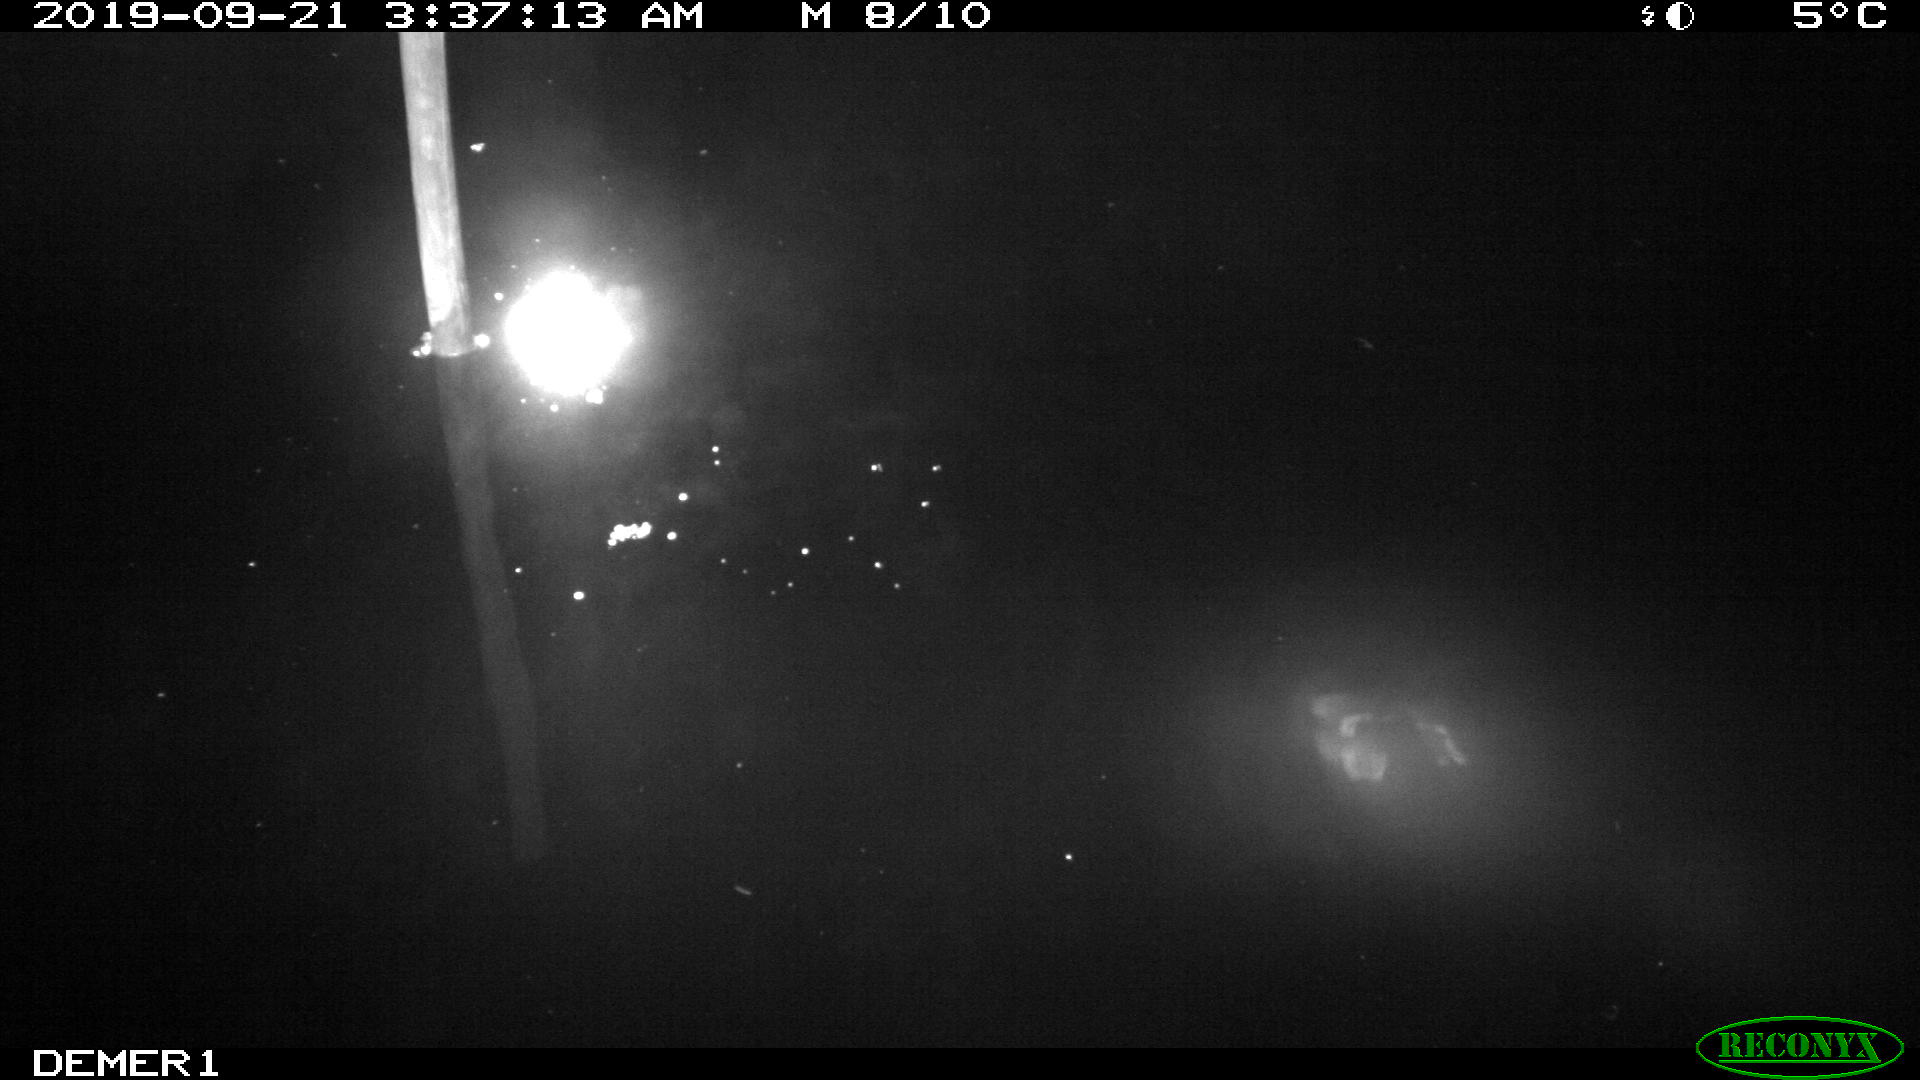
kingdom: Animalia
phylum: Chordata
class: Aves
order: Anseriformes
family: Anatidae
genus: Anas
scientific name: Anas platyrhynchos
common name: Mallard
